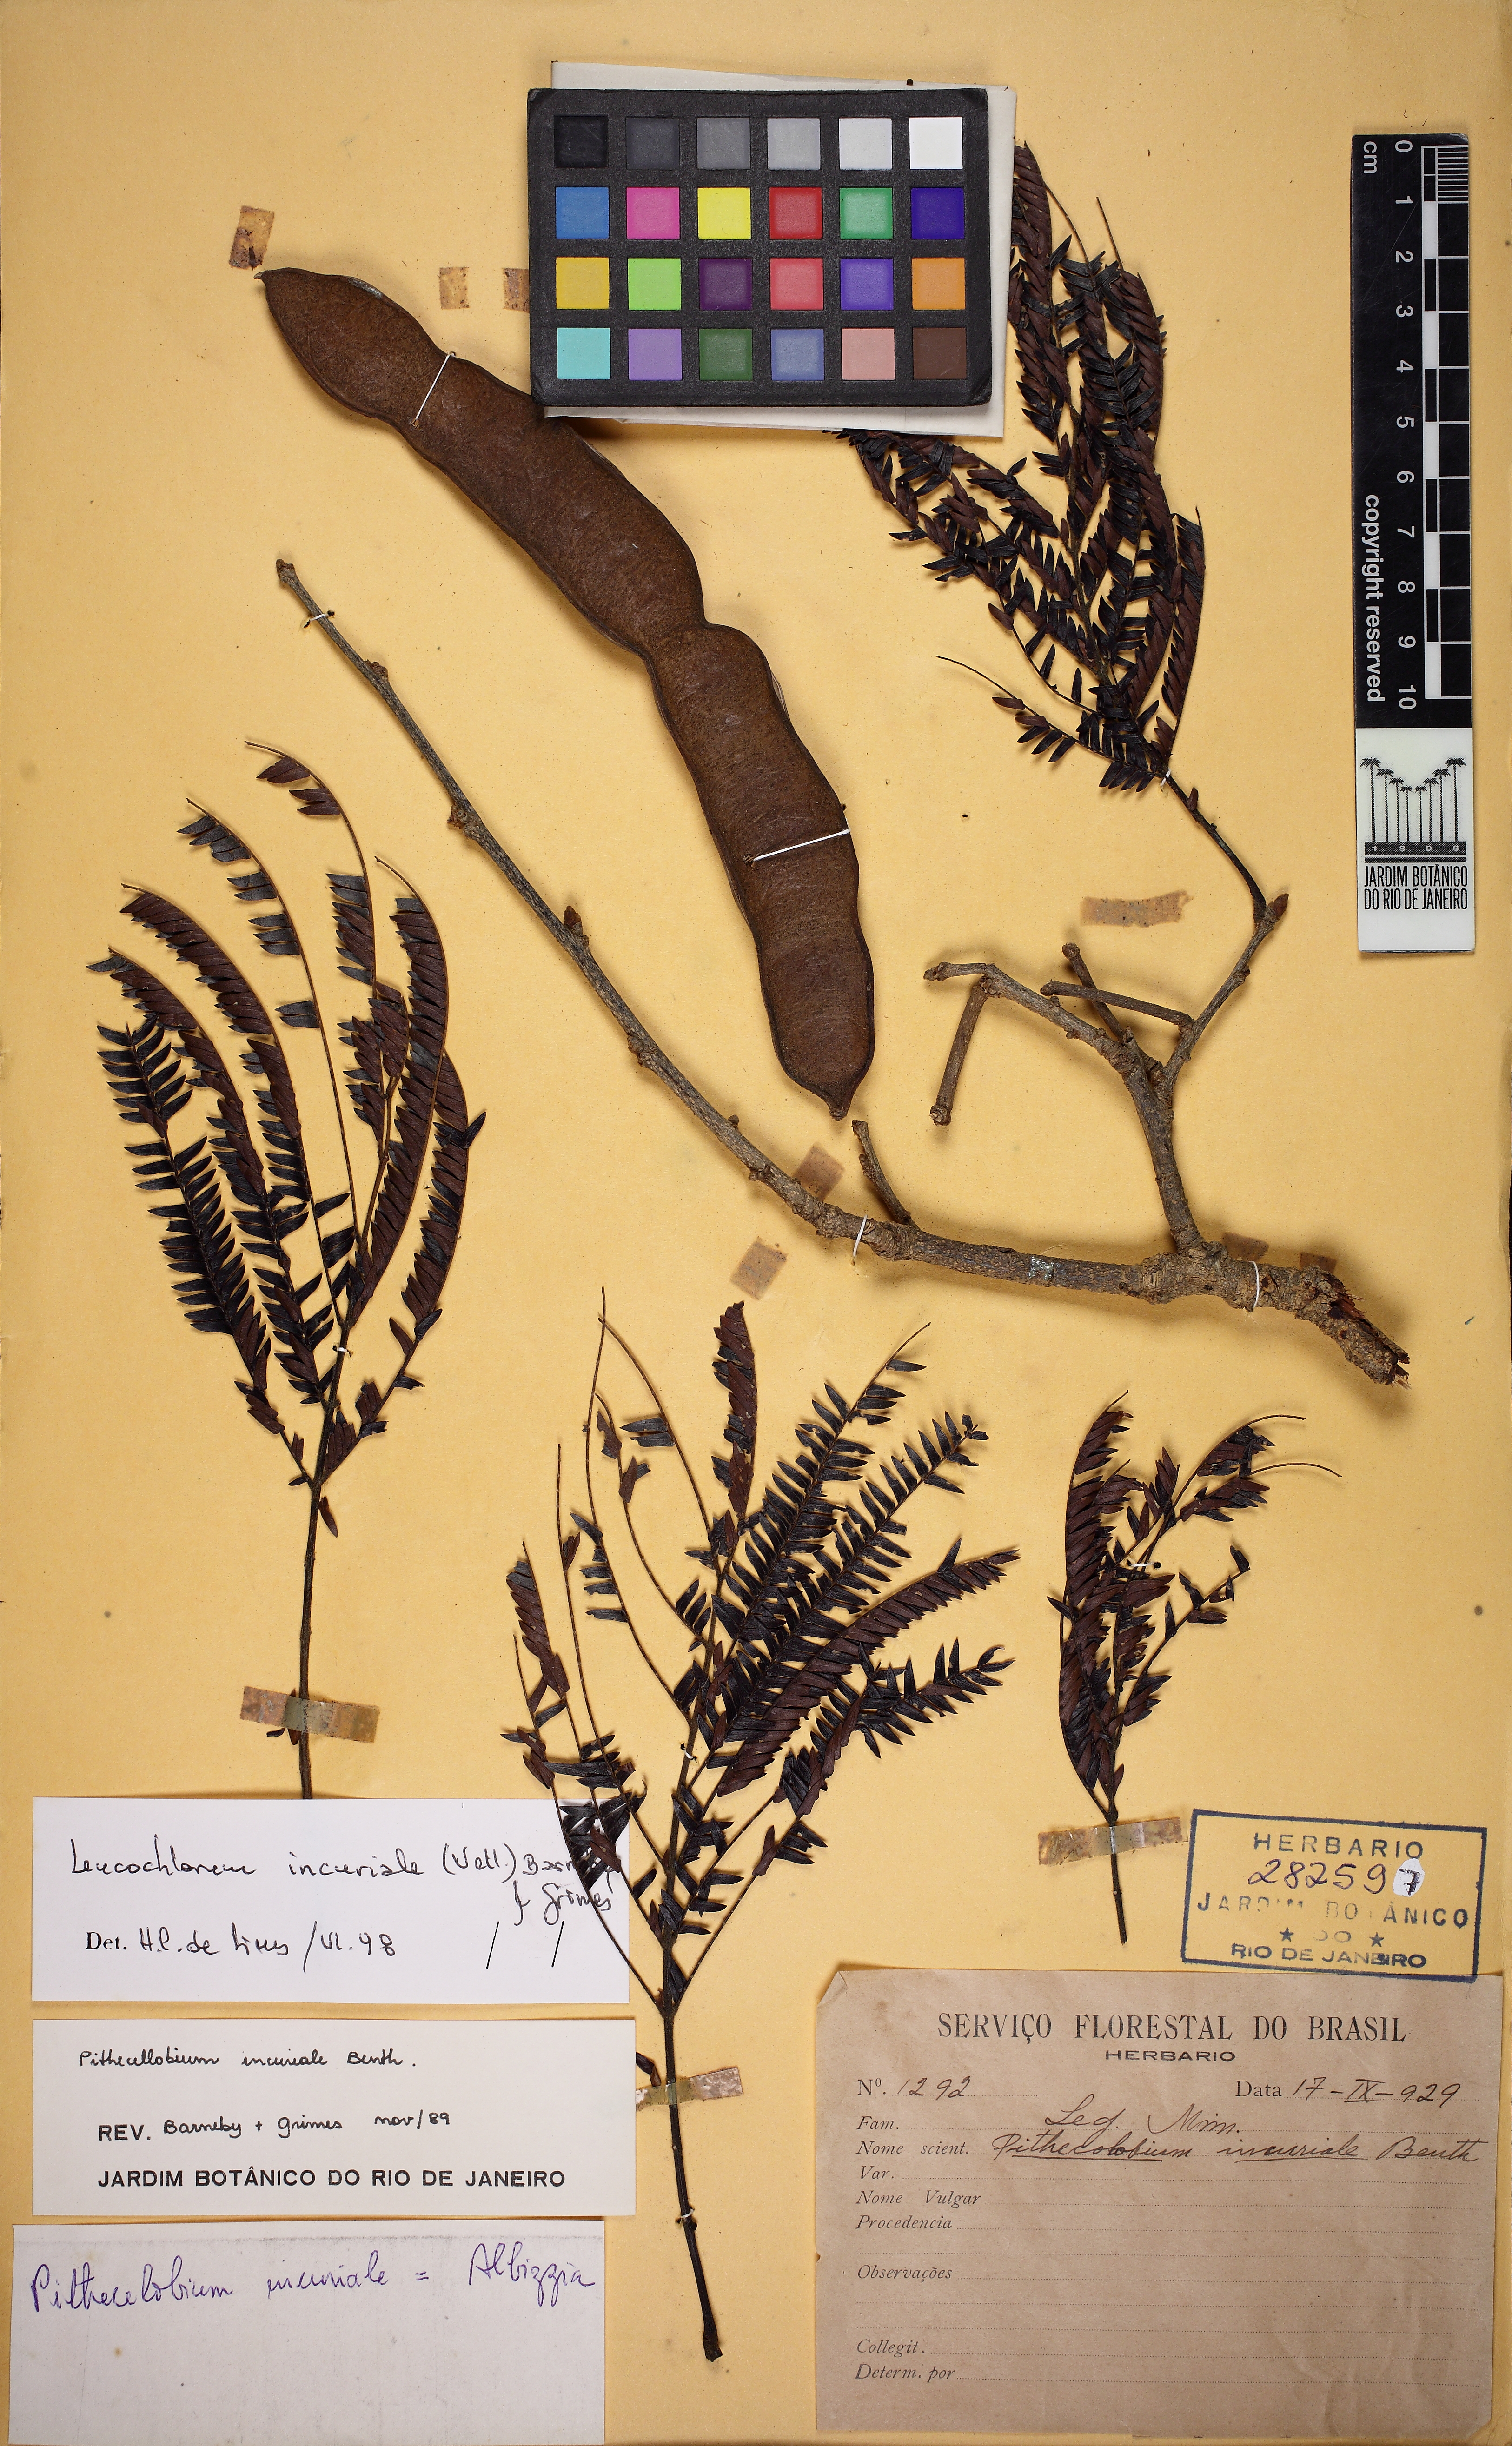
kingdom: Plantae
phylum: Tracheophyta
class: Magnoliopsida
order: Fabales
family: Fabaceae
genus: Leucochloron
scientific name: Leucochloron incuriale
